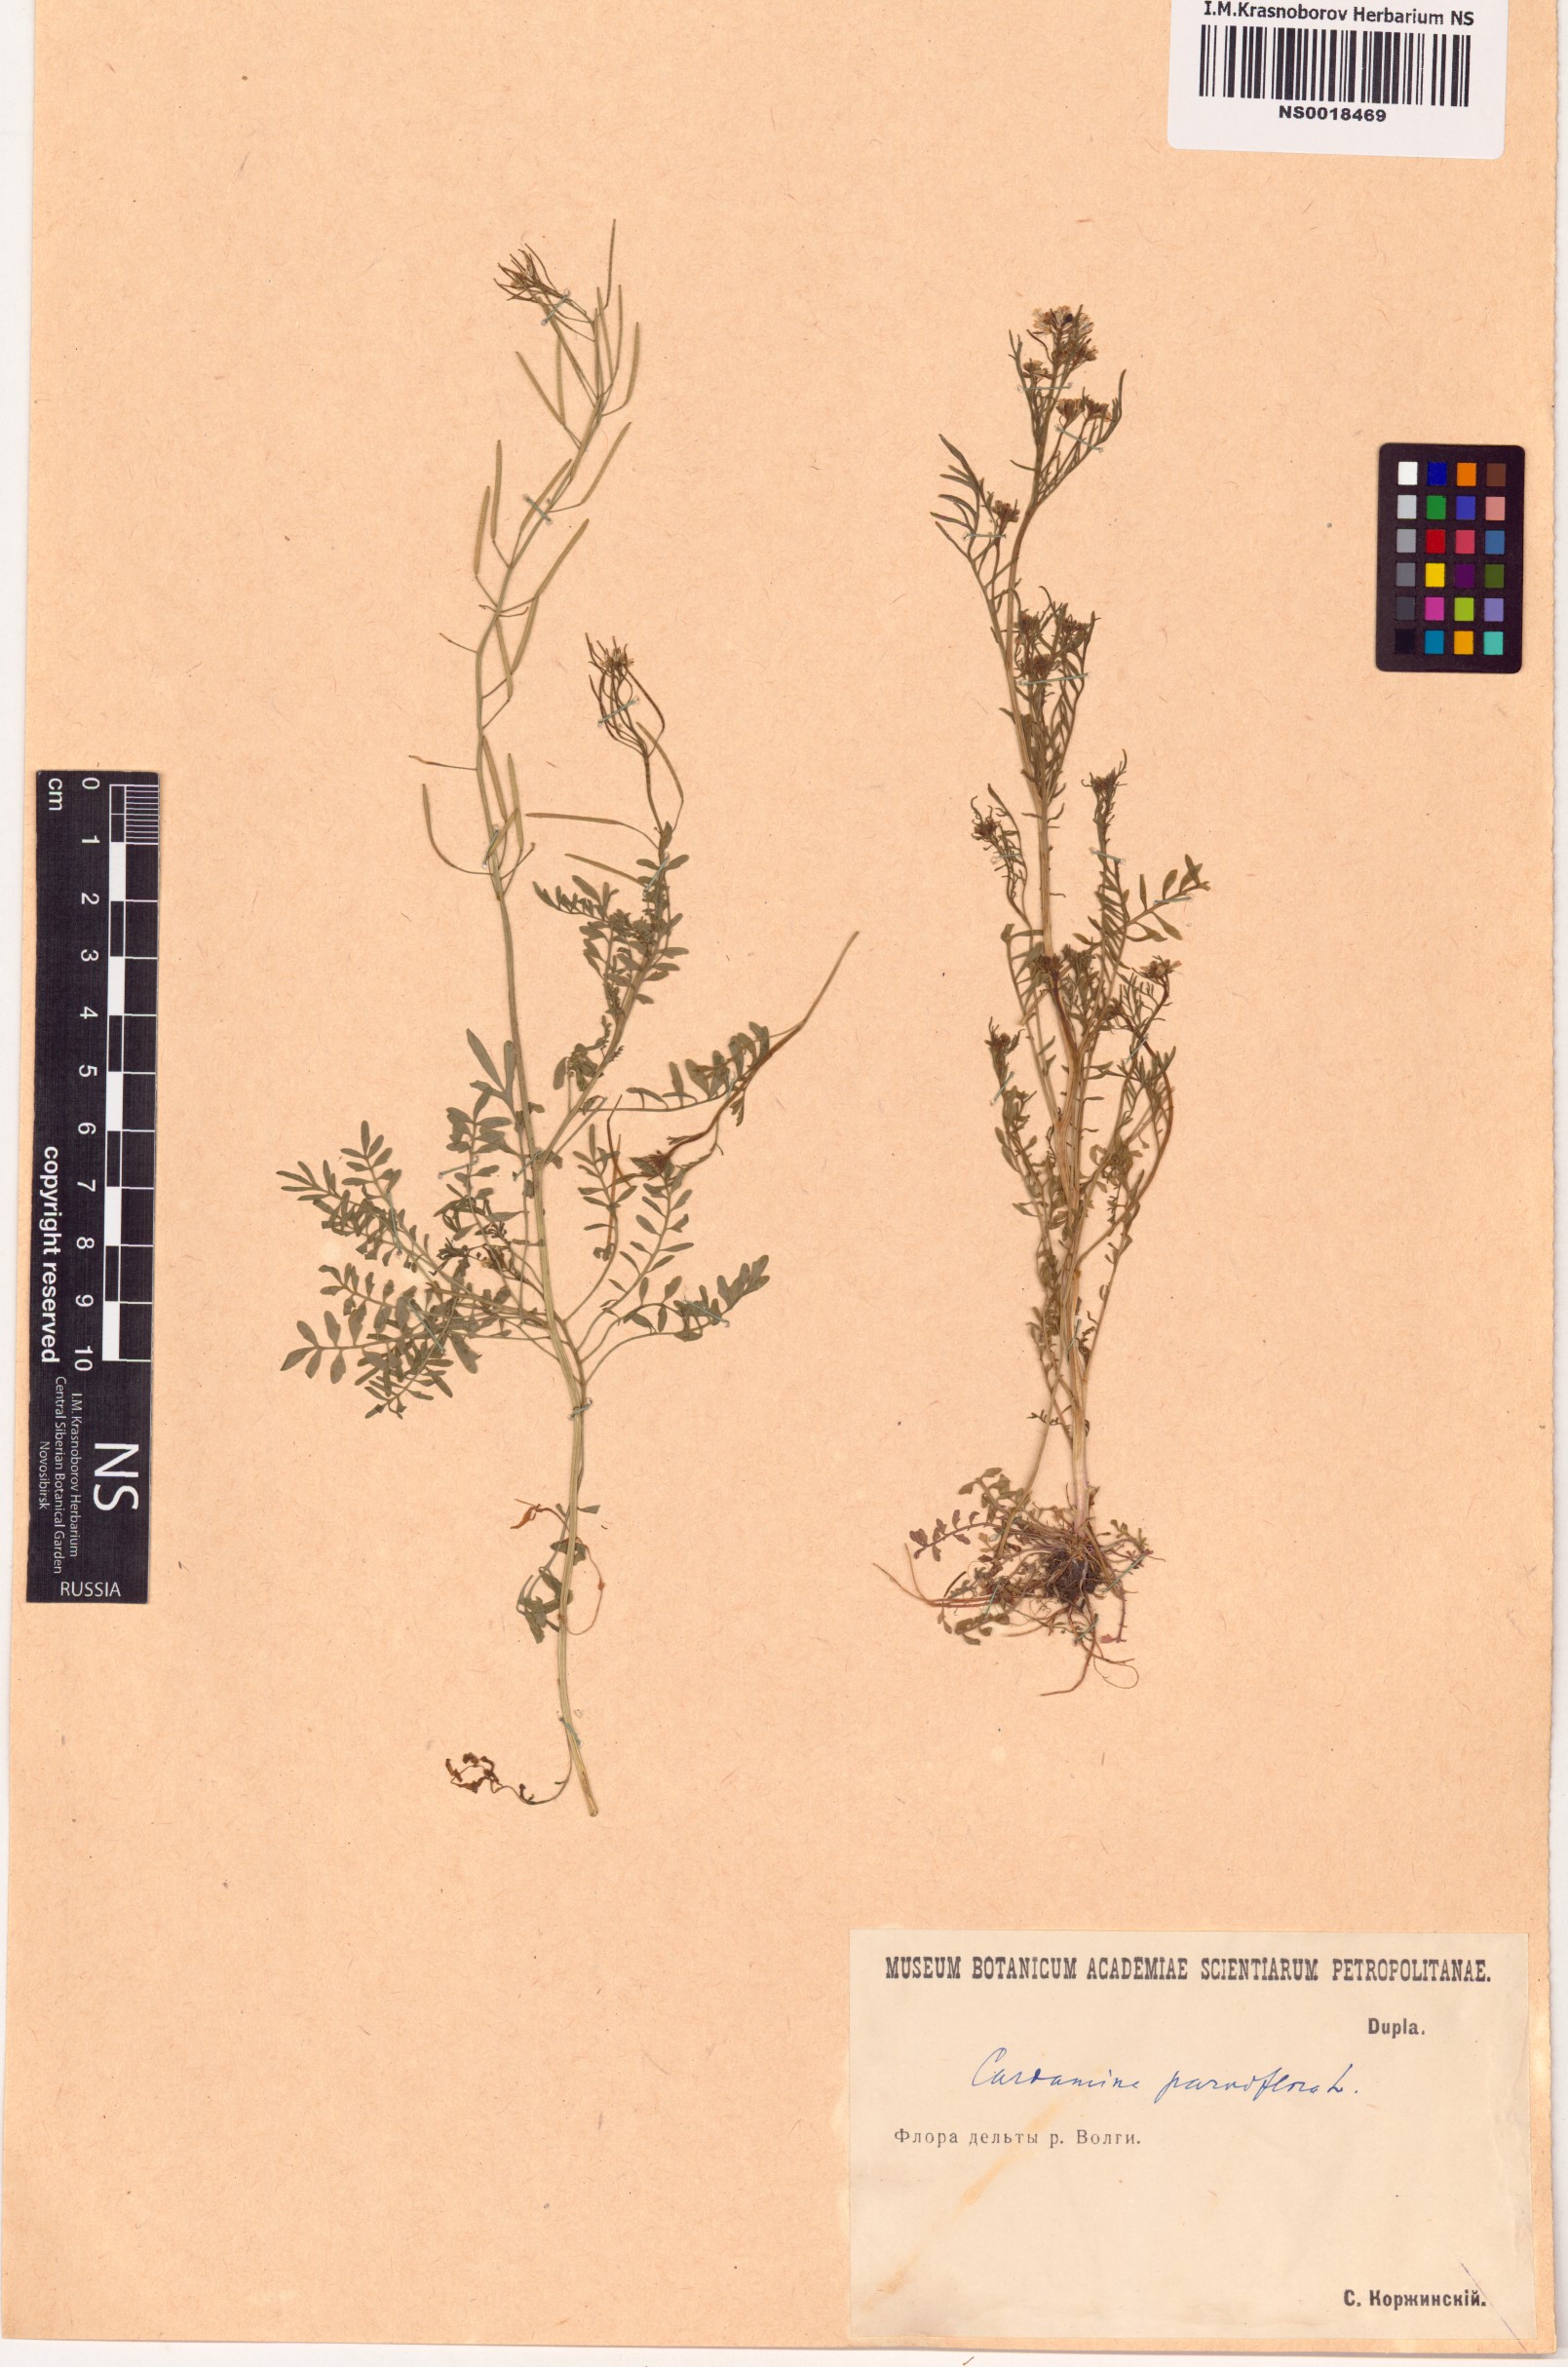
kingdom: Plantae
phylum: Tracheophyta
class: Magnoliopsida
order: Brassicales
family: Brassicaceae
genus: Cardamine
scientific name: Cardamine parviflora
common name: Sand bittercress
